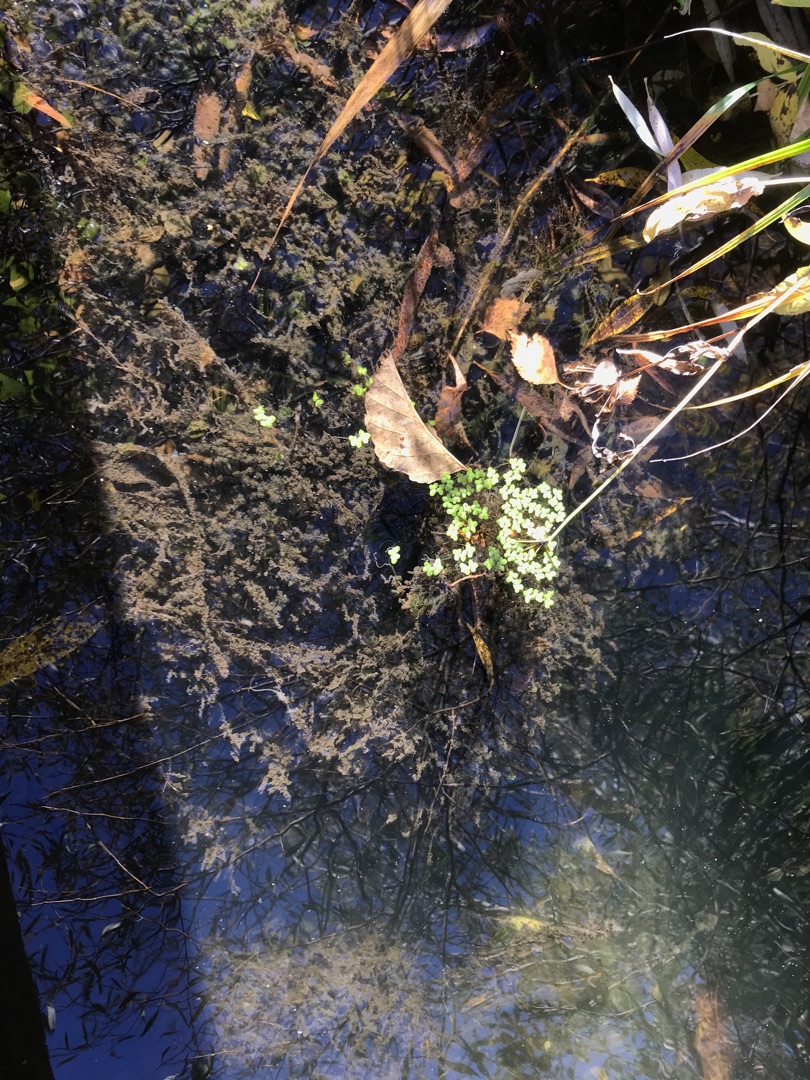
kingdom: Plantae
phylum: Tracheophyta
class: Liliopsida
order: Alismatales
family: Araceae
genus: Lemna
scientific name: Lemna minor
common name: Liden andemad
